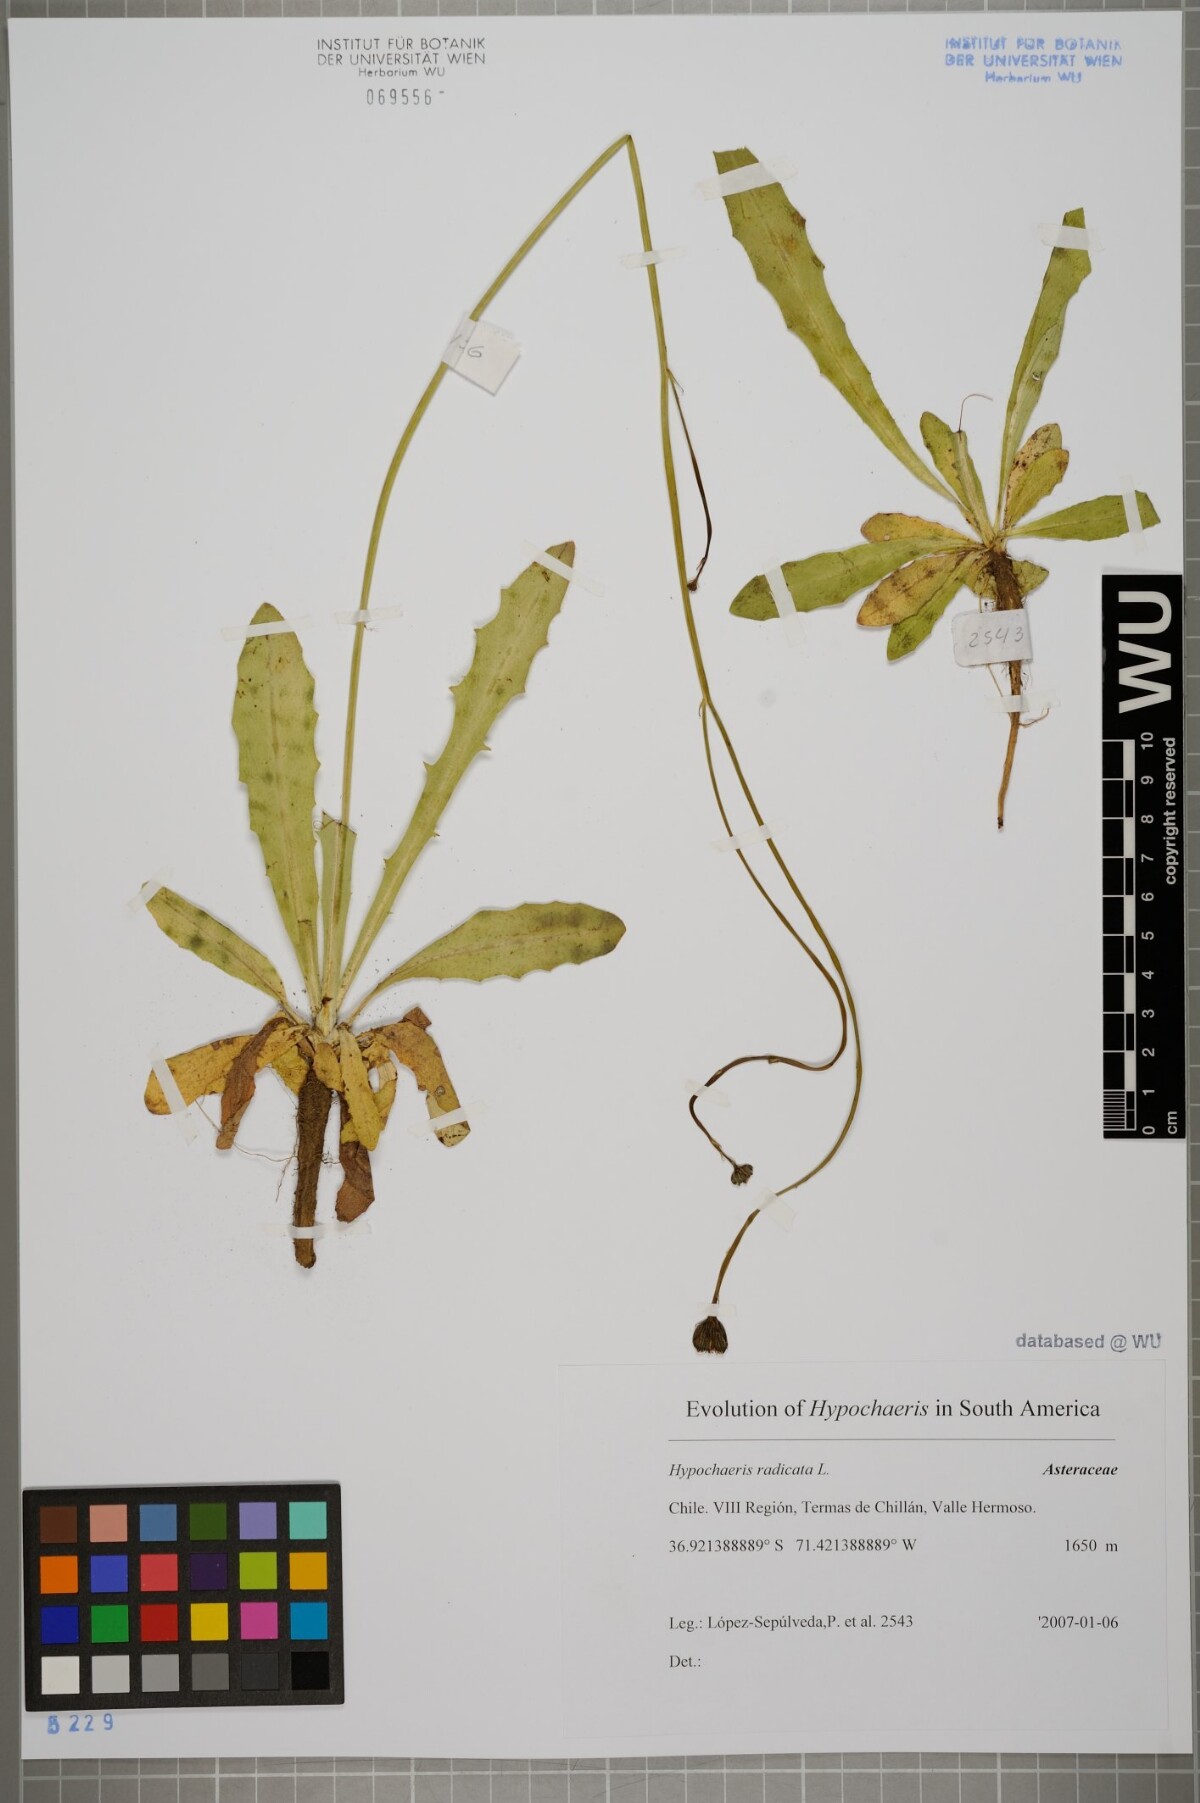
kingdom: Plantae
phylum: Tracheophyta
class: Magnoliopsida
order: Asterales
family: Asteraceae
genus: Hypochaeris
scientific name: Hypochaeris radicata
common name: Flatweed
